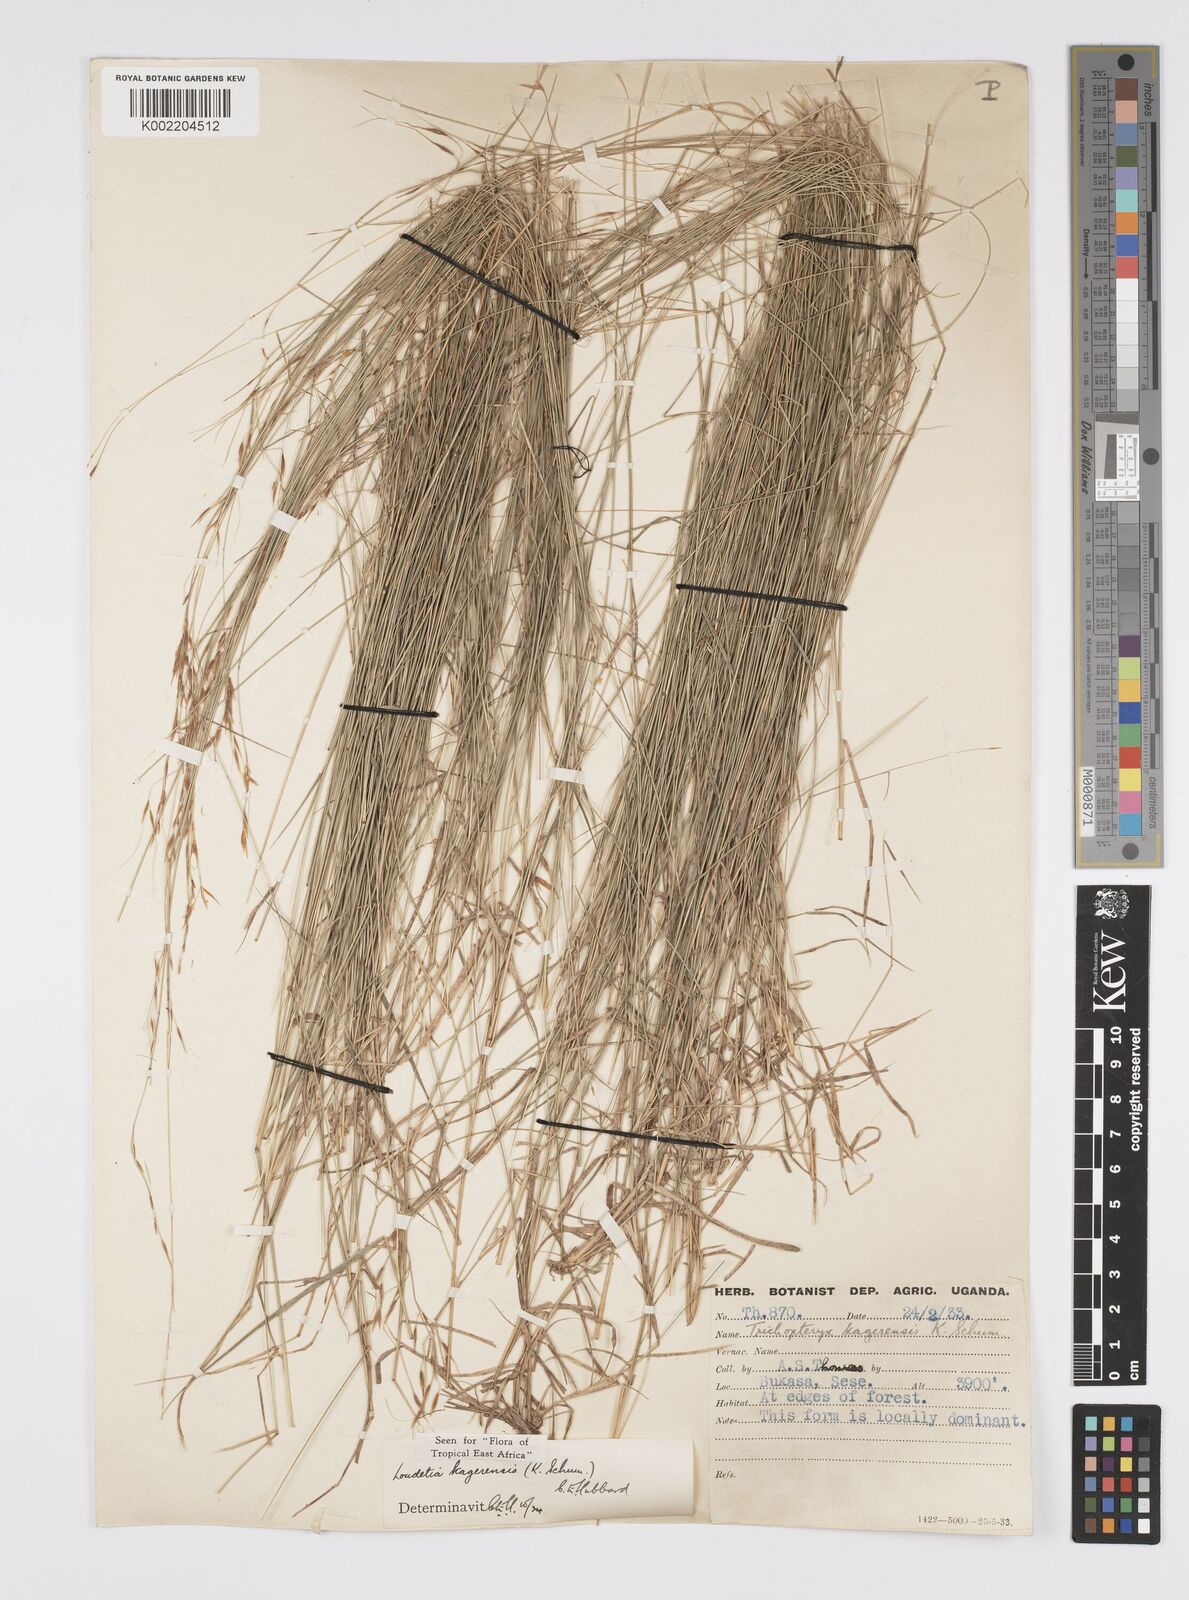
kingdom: Plantae
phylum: Tracheophyta
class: Liliopsida
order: Poales
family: Poaceae
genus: Loudetia
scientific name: Loudetia kagerensis
